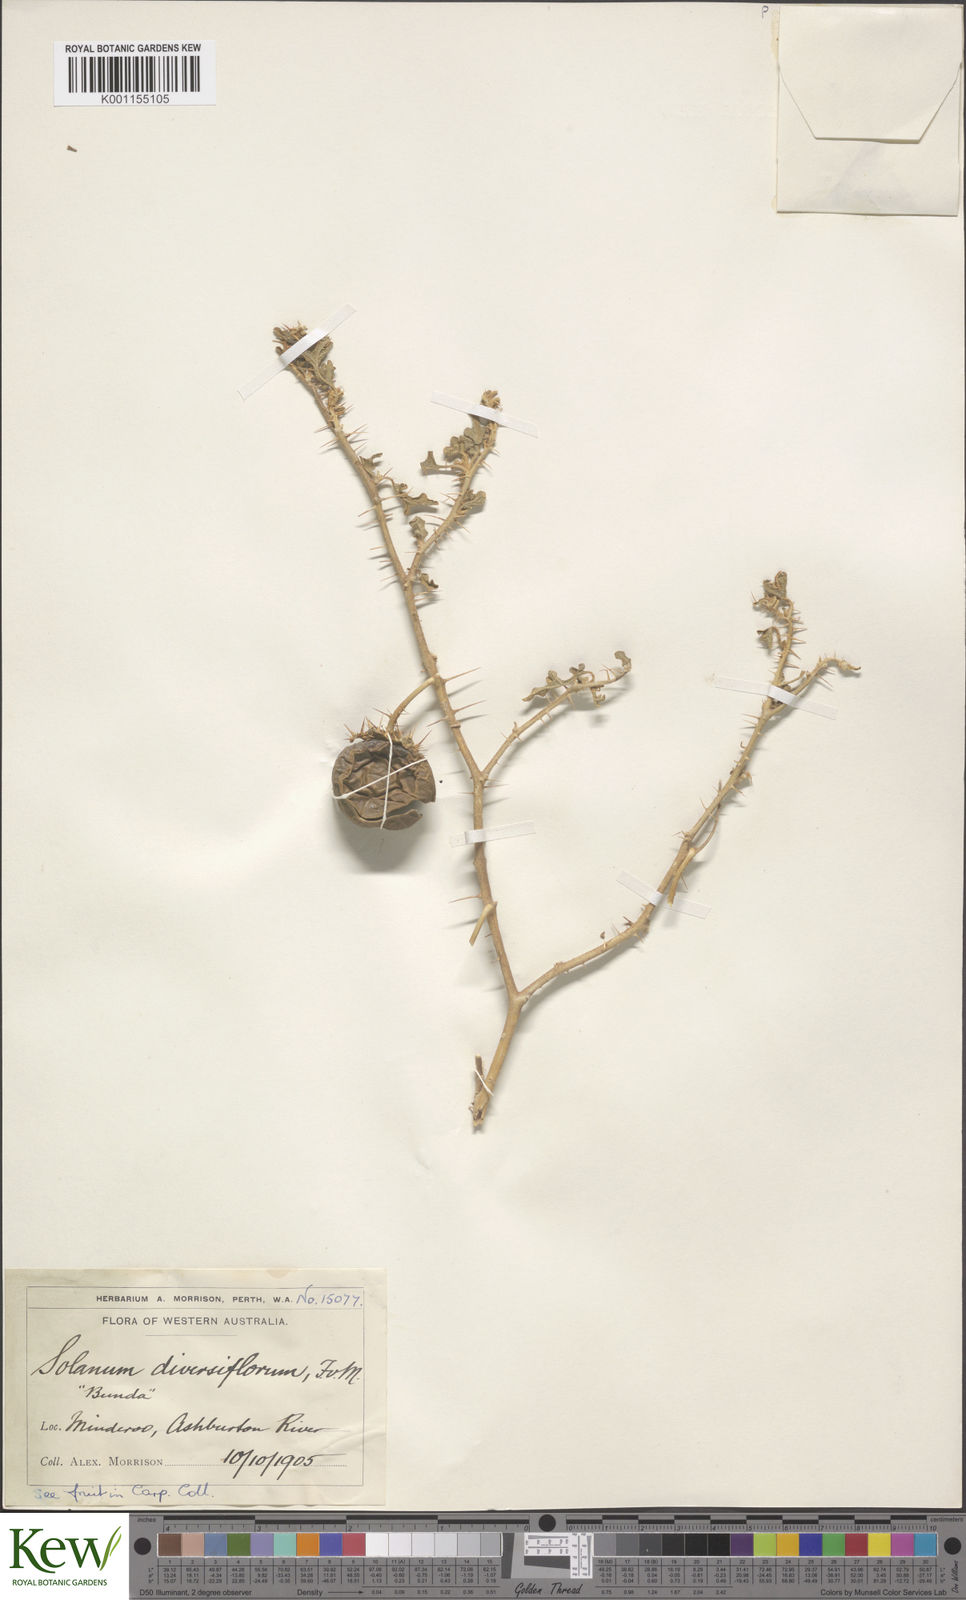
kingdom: Plantae
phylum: Tracheophyta
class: Magnoliopsida
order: Solanales
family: Solanaceae
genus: Solanum
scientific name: Solanum diversiflorum
